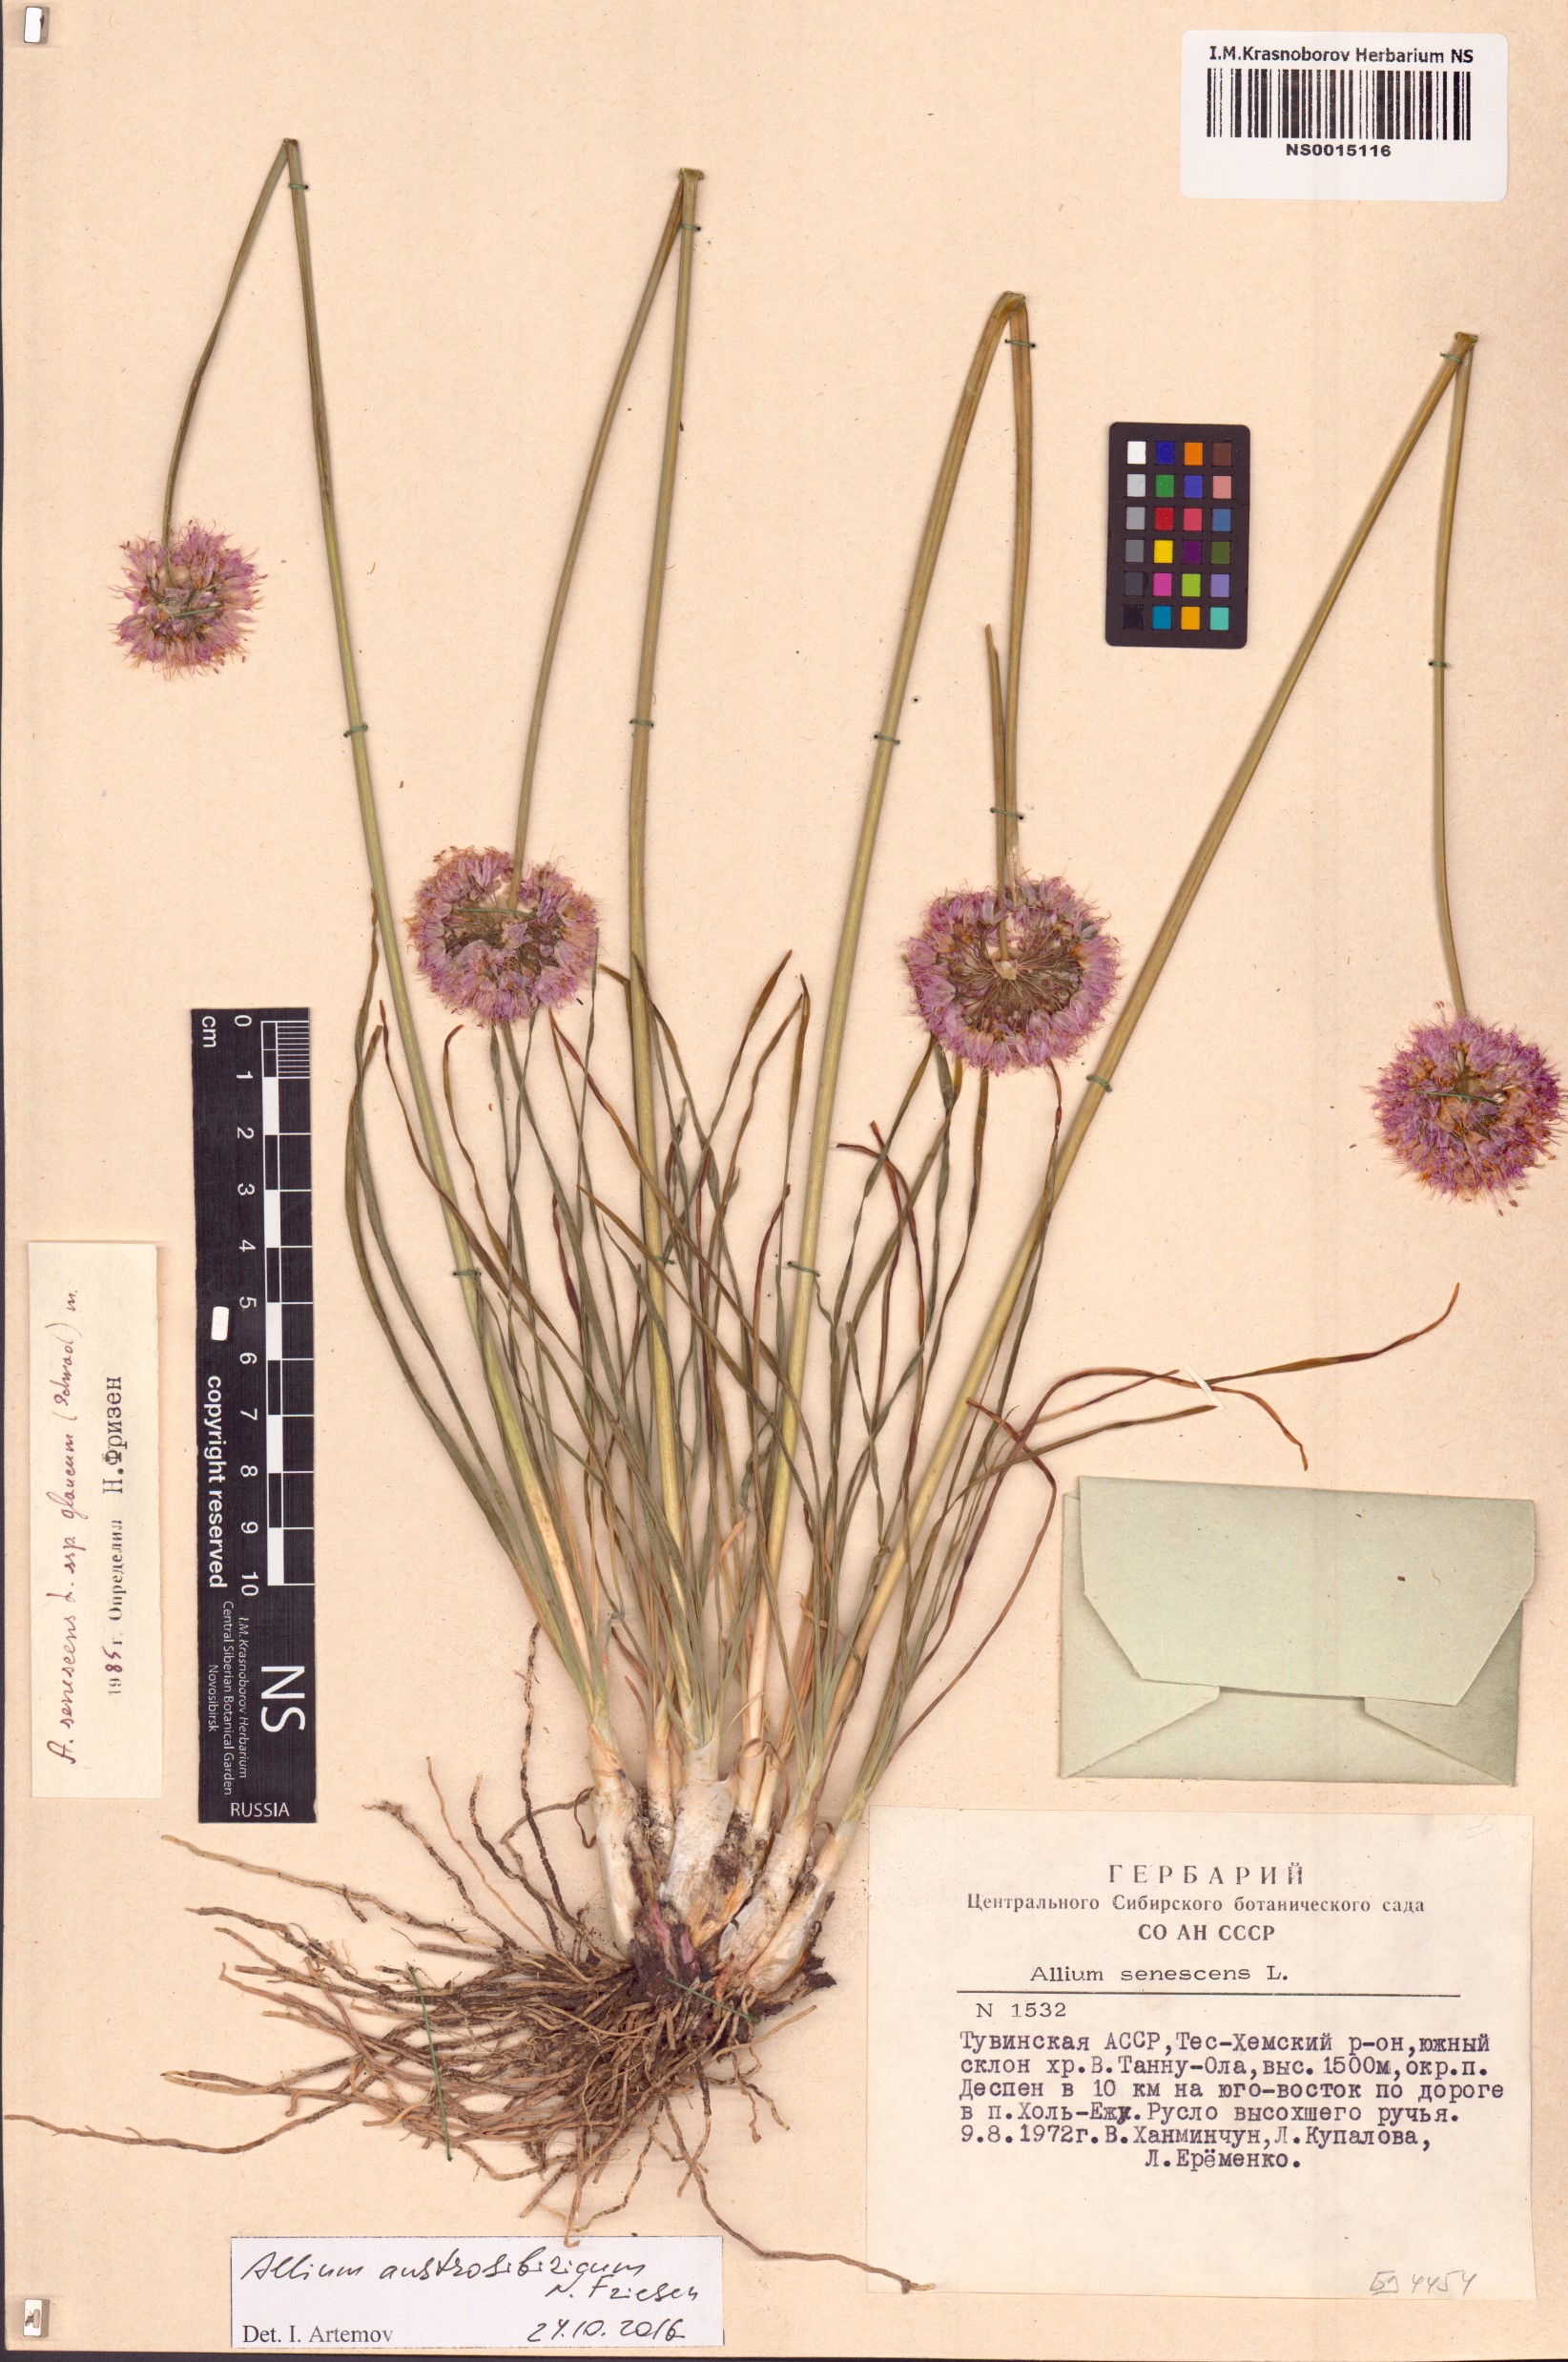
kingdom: Plantae
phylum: Tracheophyta
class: Liliopsida
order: Asparagales
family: Amaryllidaceae
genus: Allium
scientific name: Allium austrosibiricum
